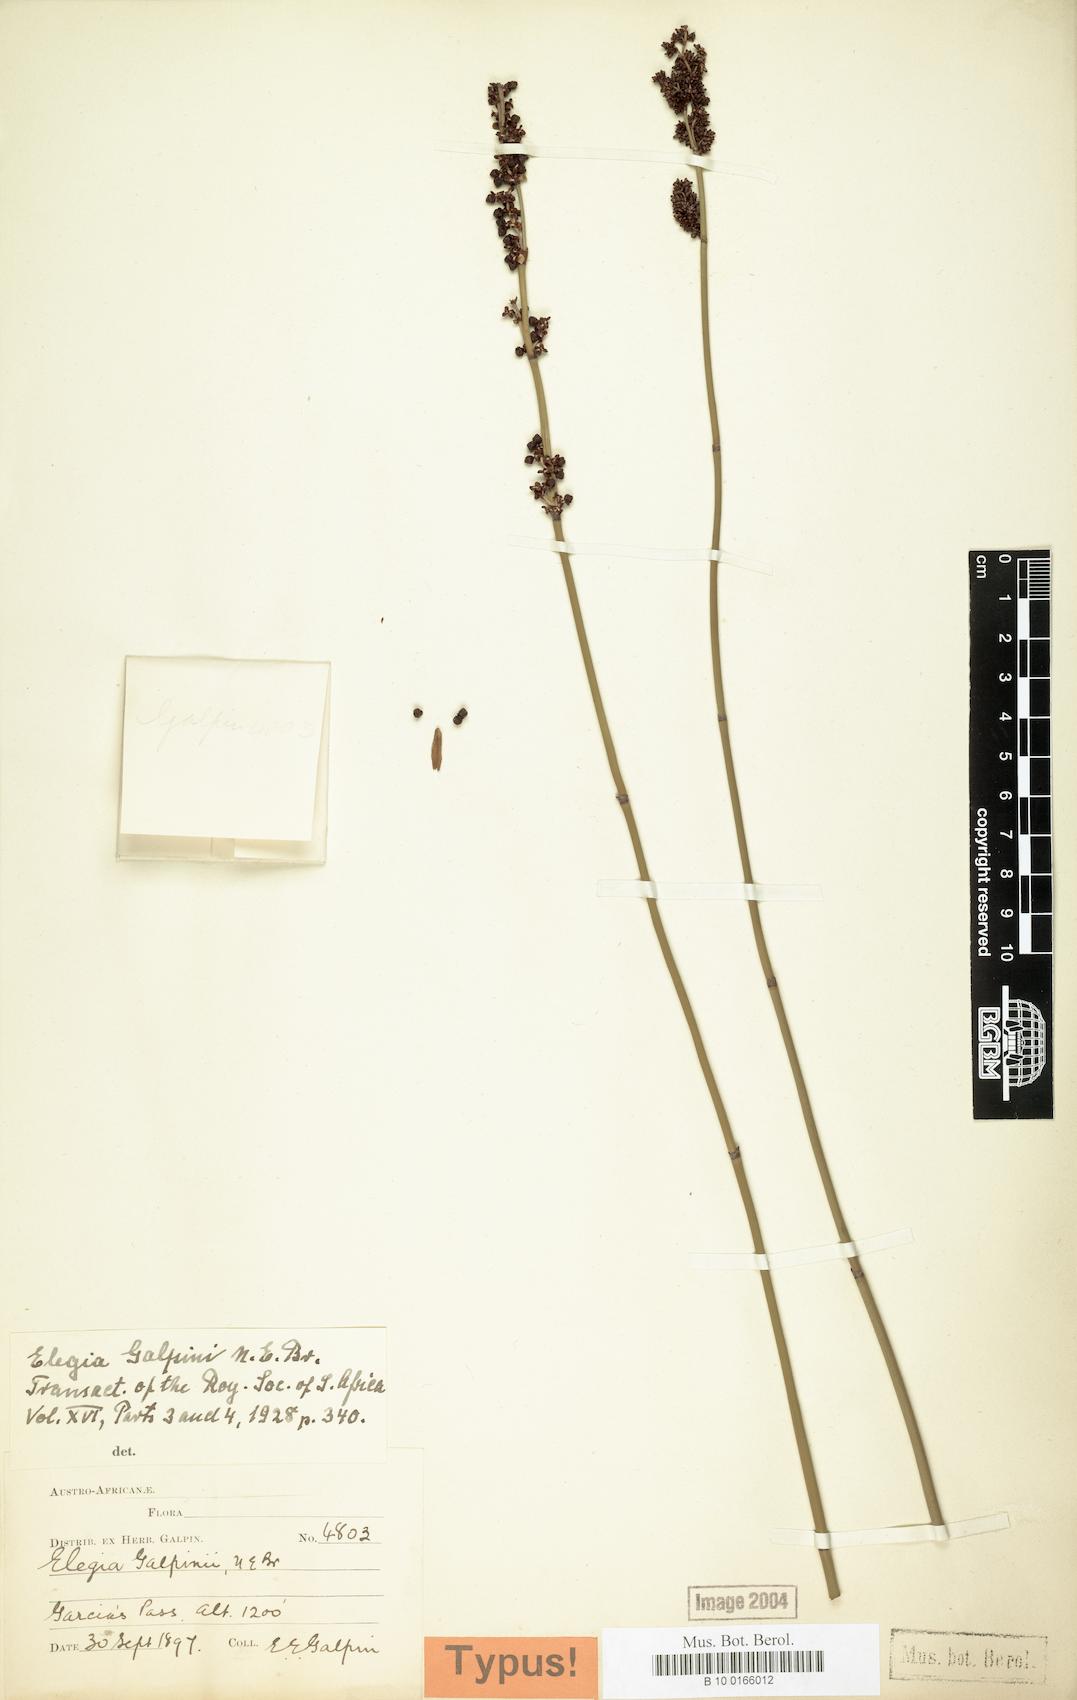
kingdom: Plantae
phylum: Tracheophyta
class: Liliopsida
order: Poales
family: Restionaceae
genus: Elegia
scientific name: Elegia galpinii
